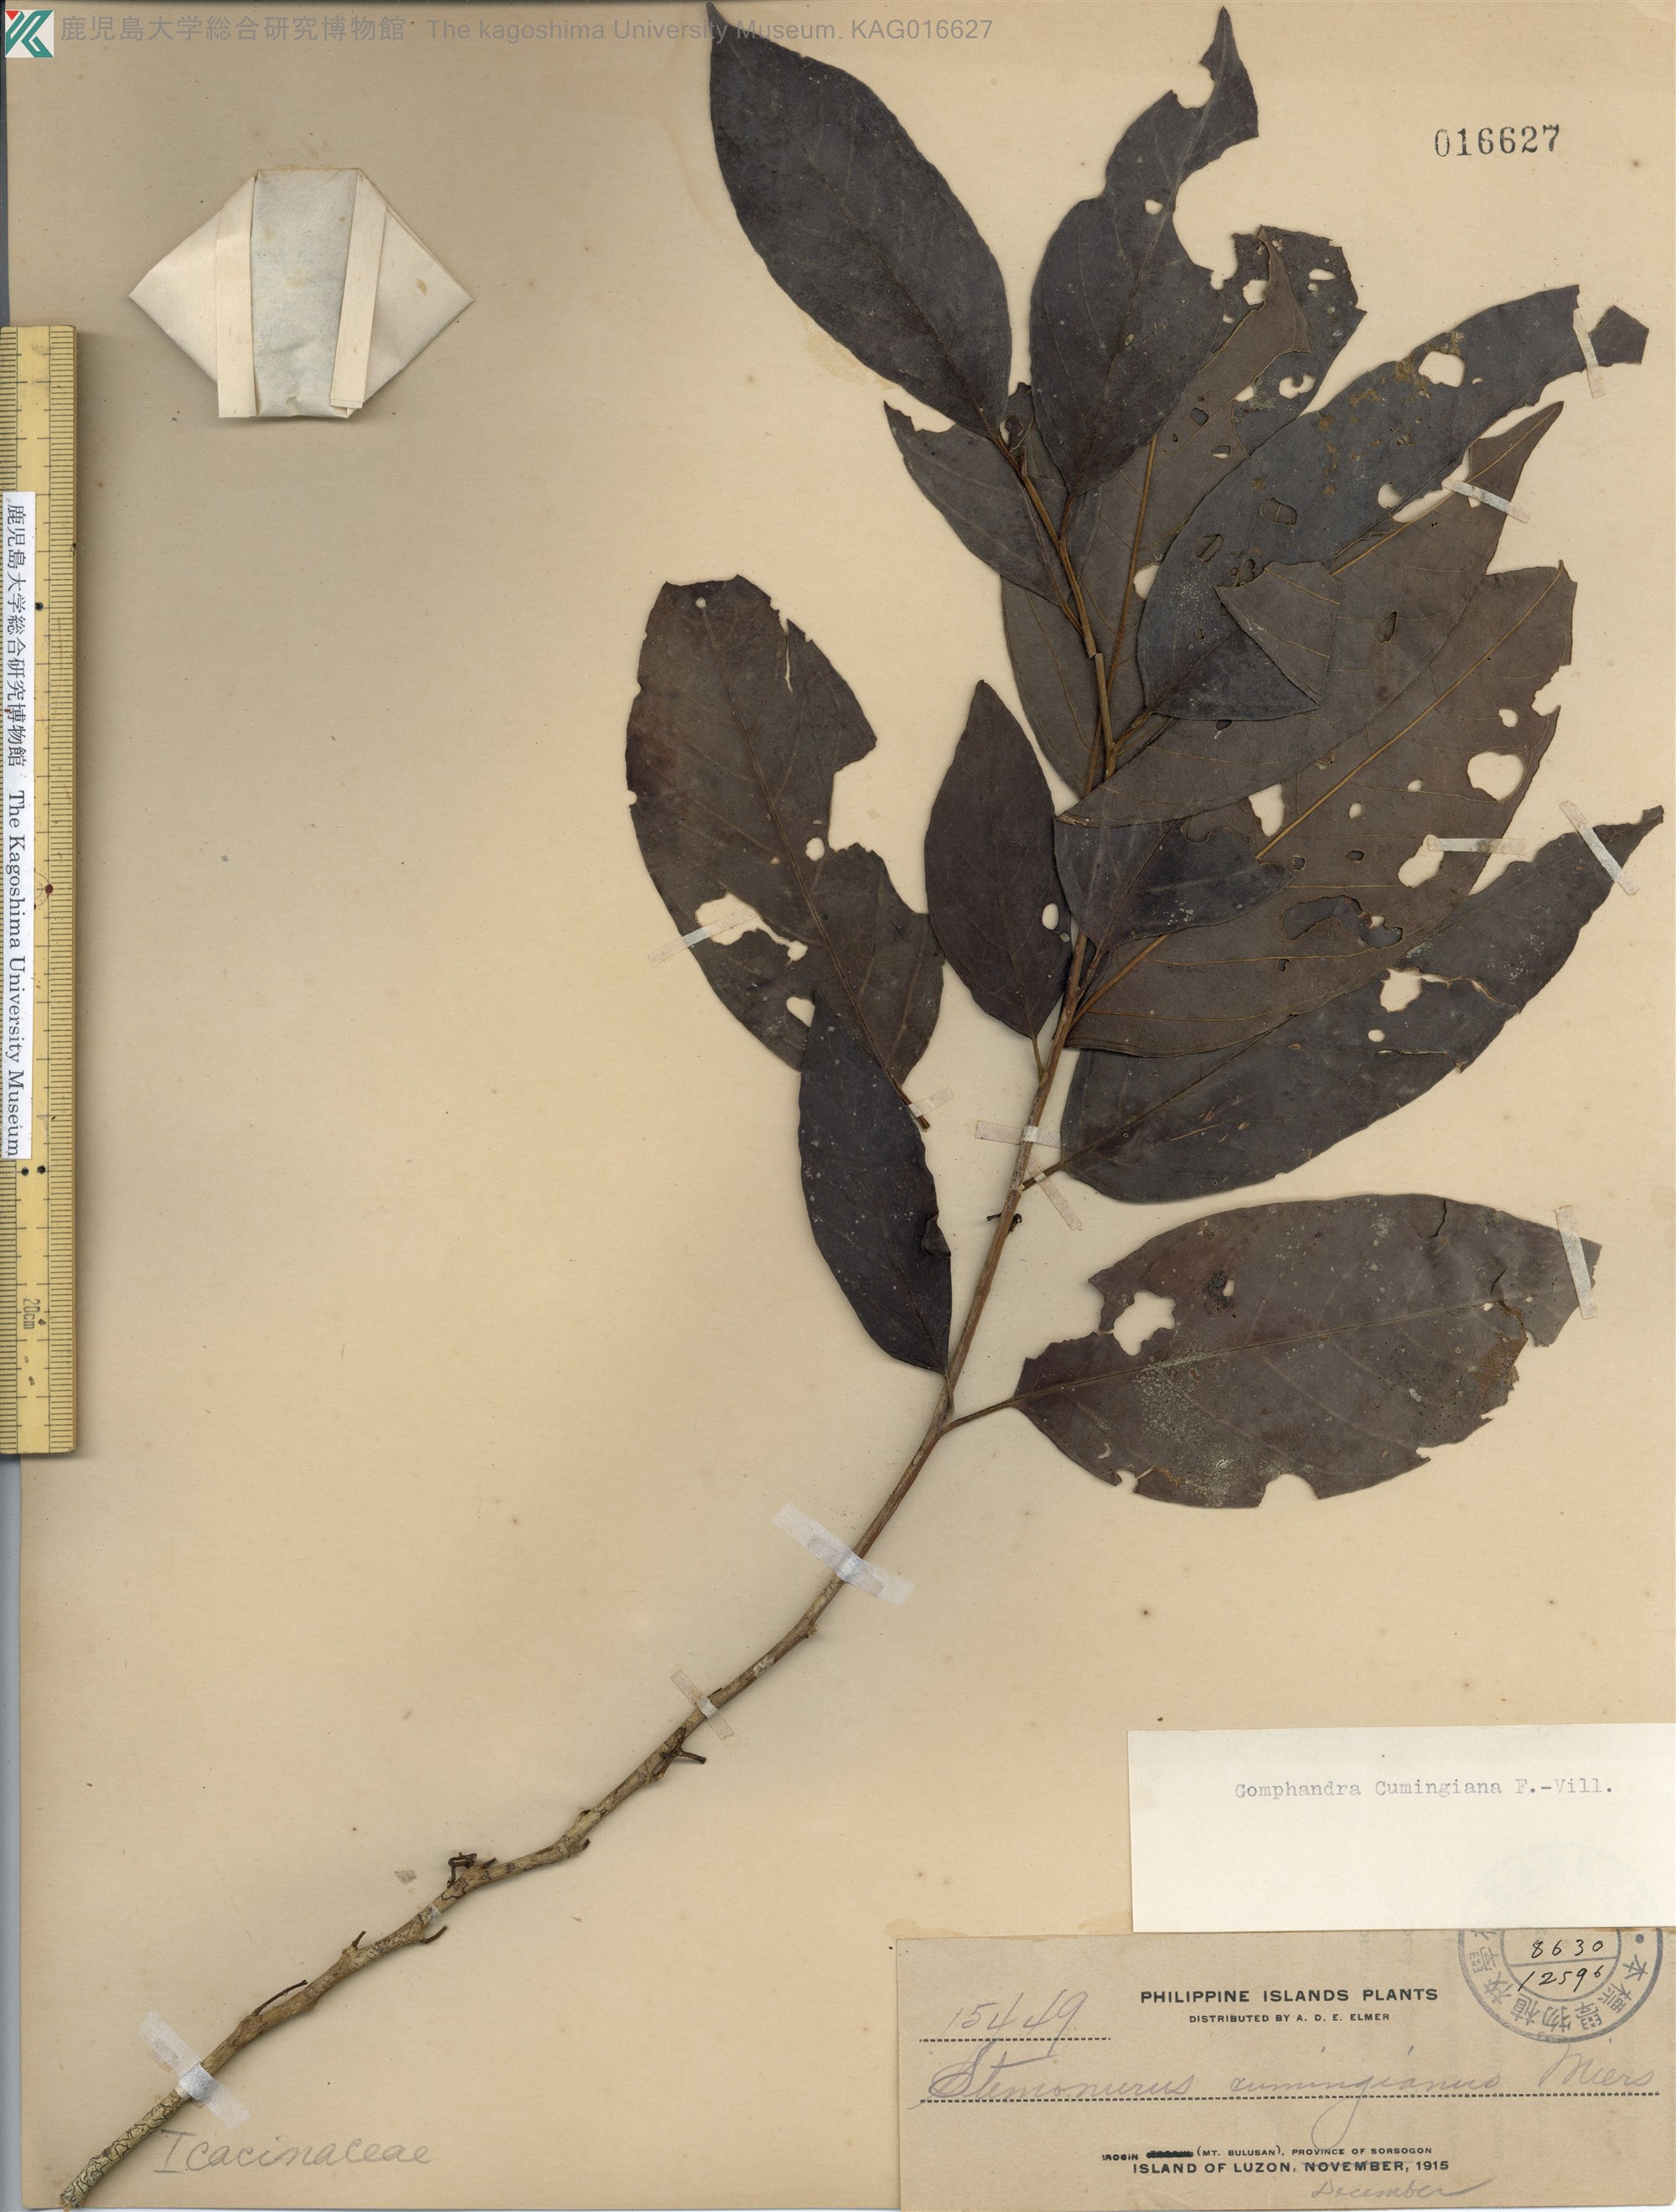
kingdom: Plantae
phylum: Tracheophyta
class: Magnoliopsida
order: Cardiopteridales
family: Stemonuraceae
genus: Gomphandra
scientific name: Gomphandra cumingiana
